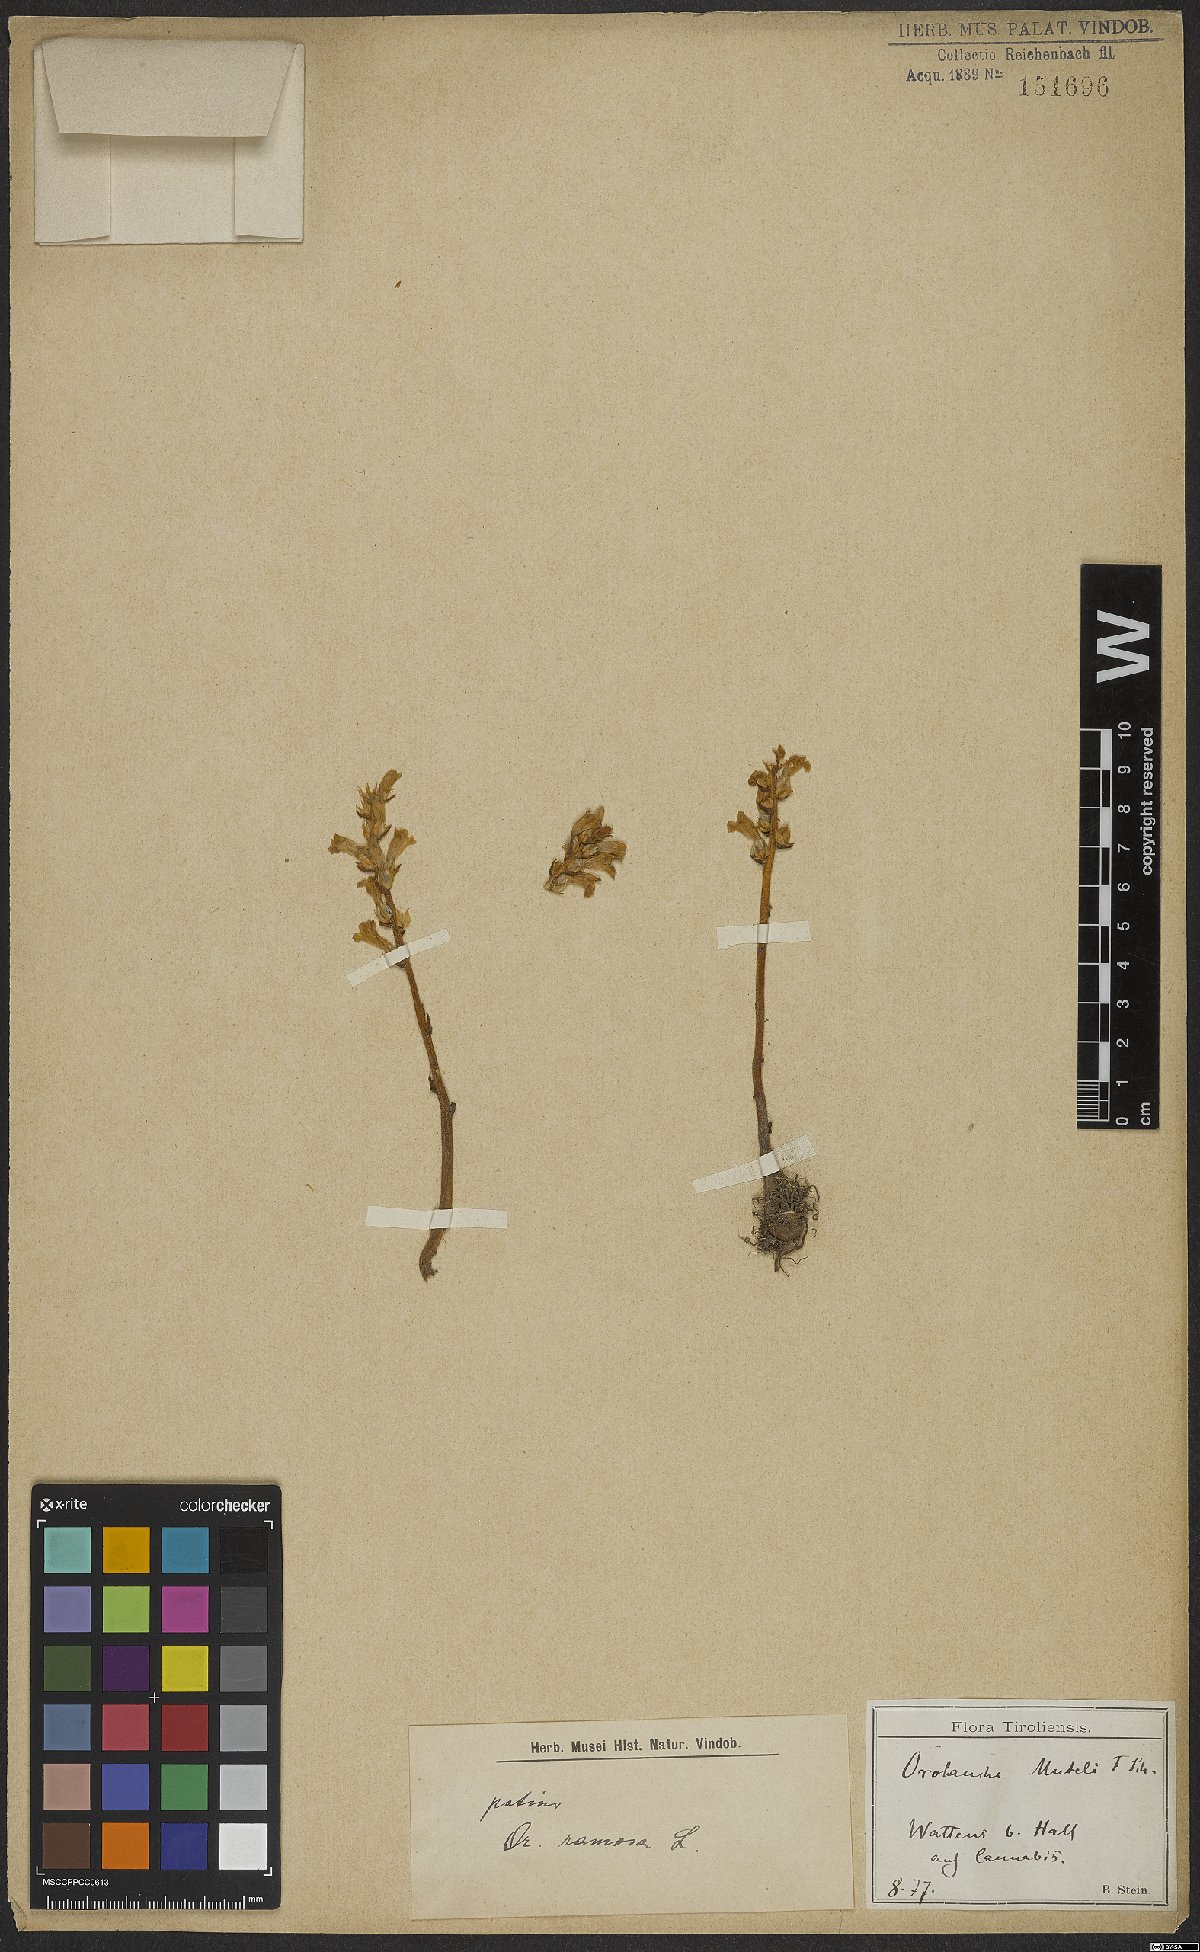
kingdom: Plantae
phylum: Tracheophyta
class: Magnoliopsida
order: Lamiales
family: Orobanchaceae
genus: Phelipanche
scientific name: Phelipanche ramosa
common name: Branched broomrape
